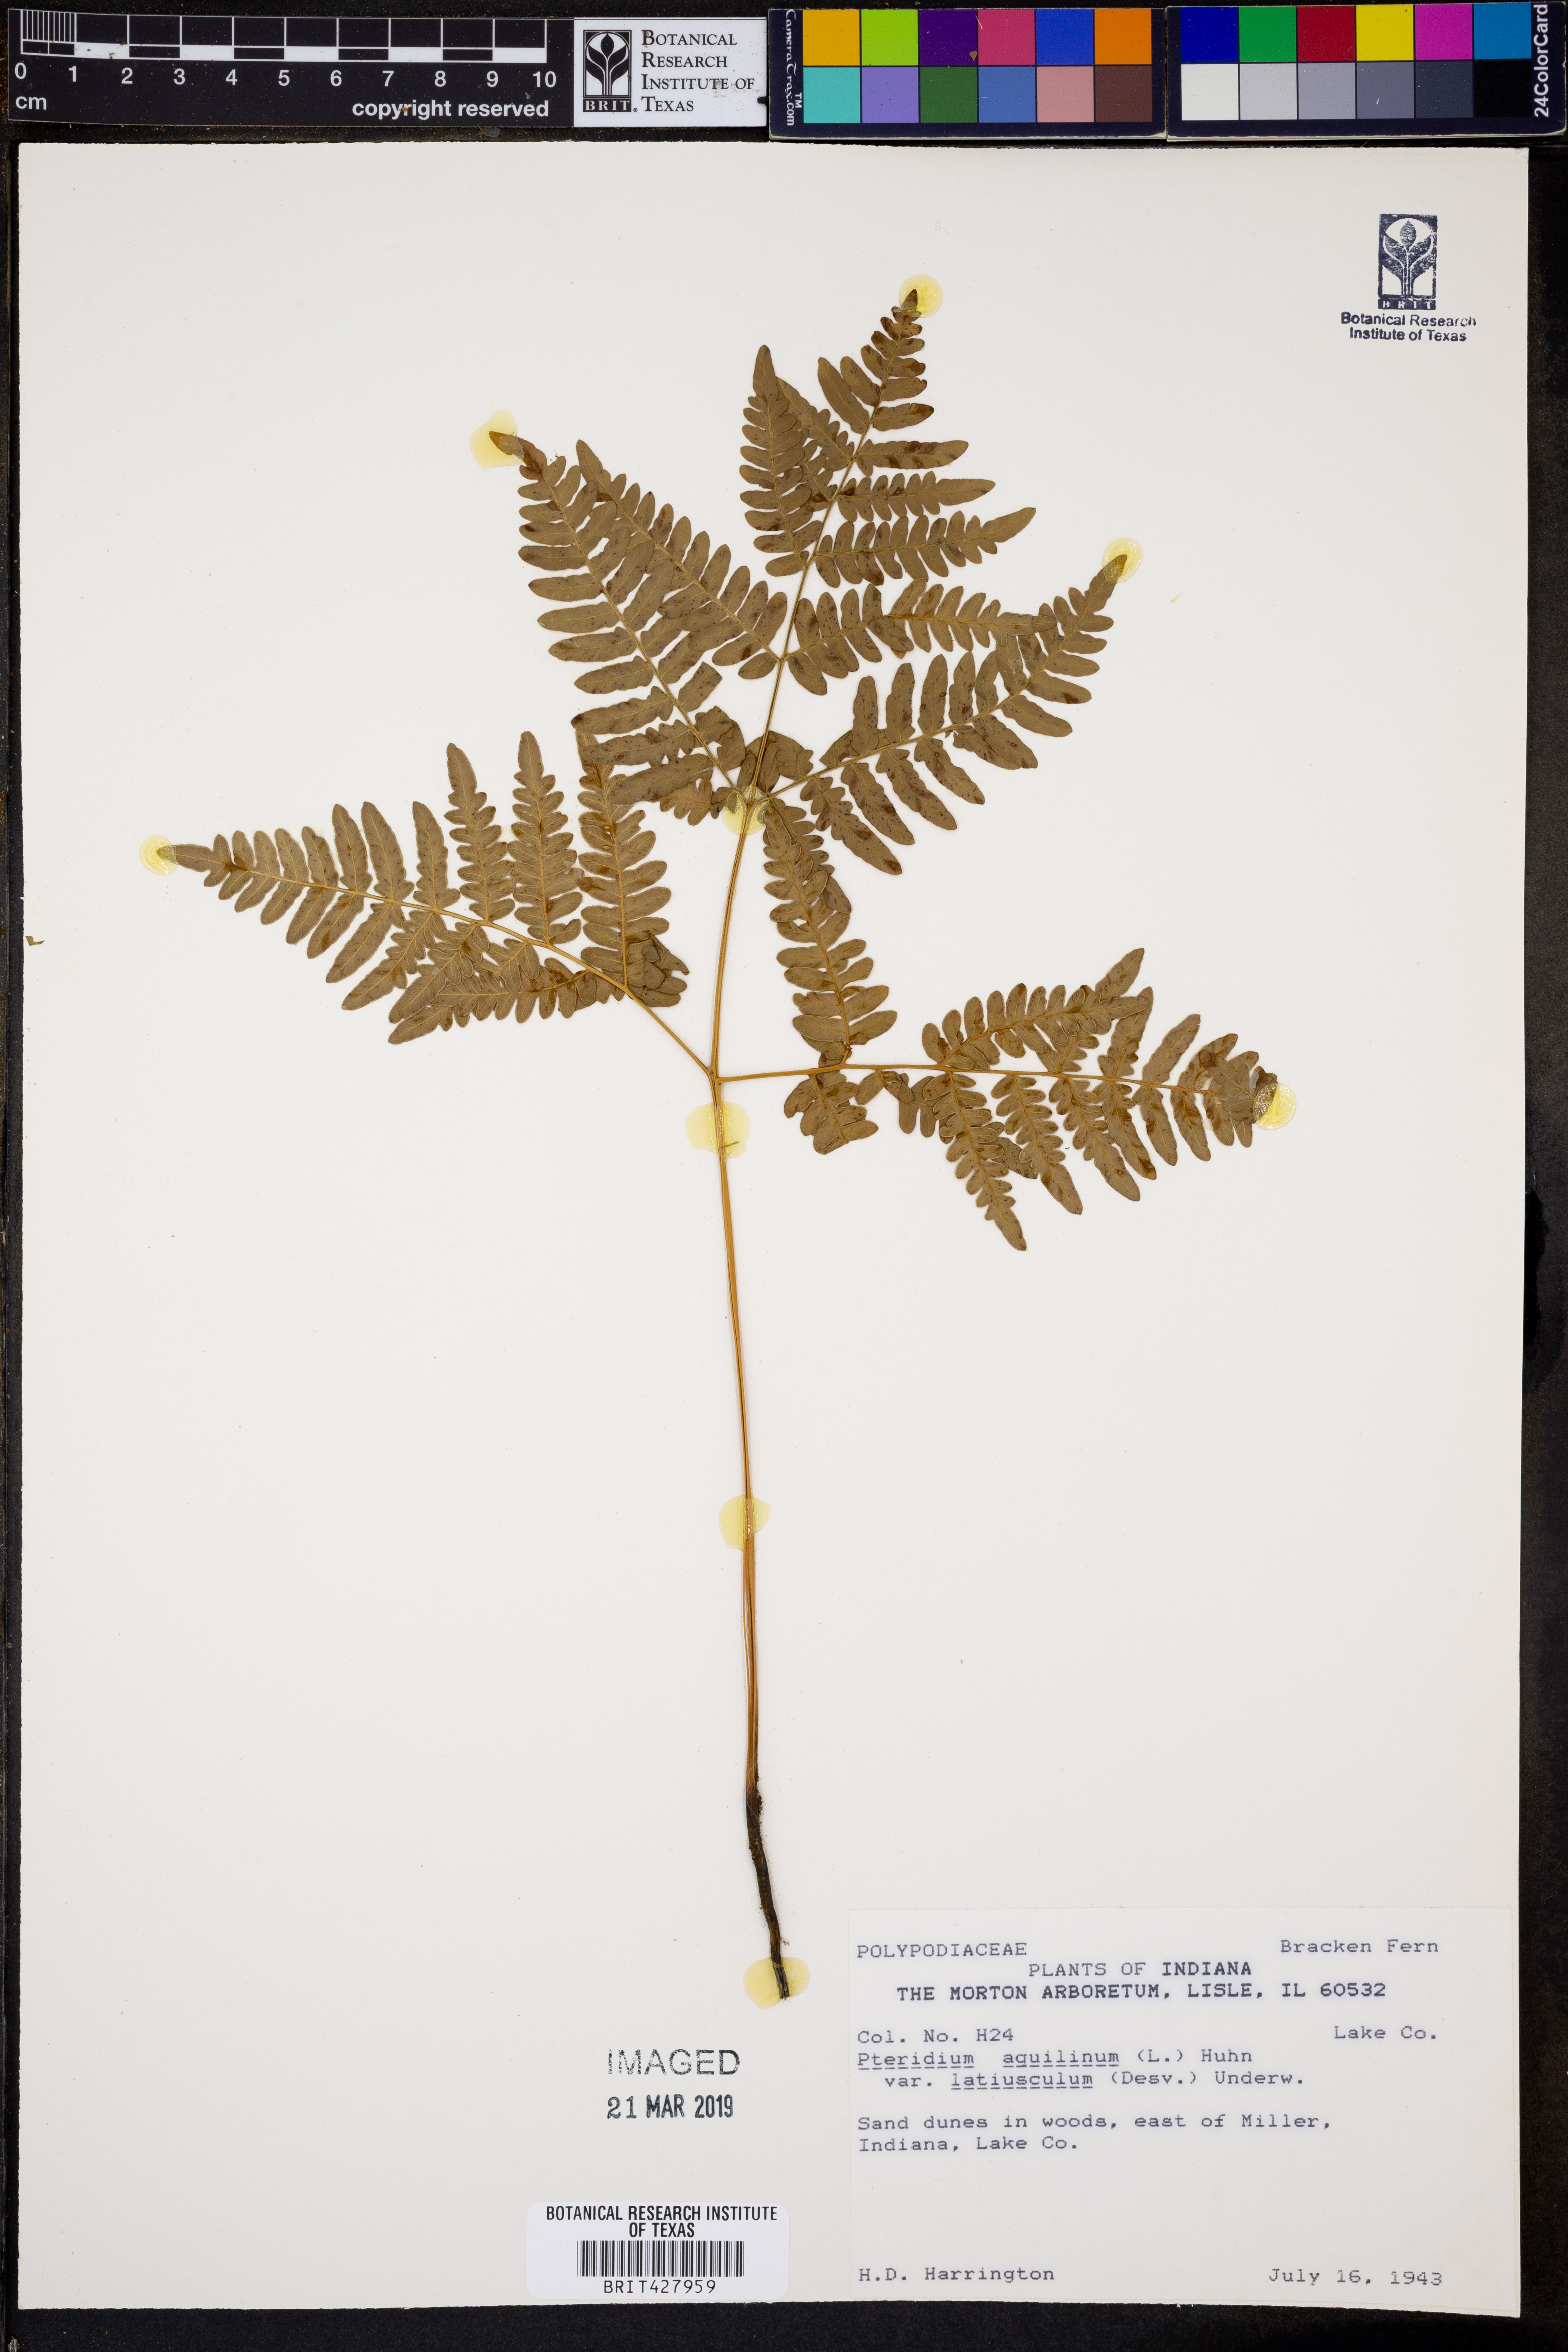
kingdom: Plantae
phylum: Tracheophyta
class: Polypodiopsida
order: Polypodiales
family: Dennstaedtiaceae
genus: Pteridium
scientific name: Pteridium aquilinum
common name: Bracken
